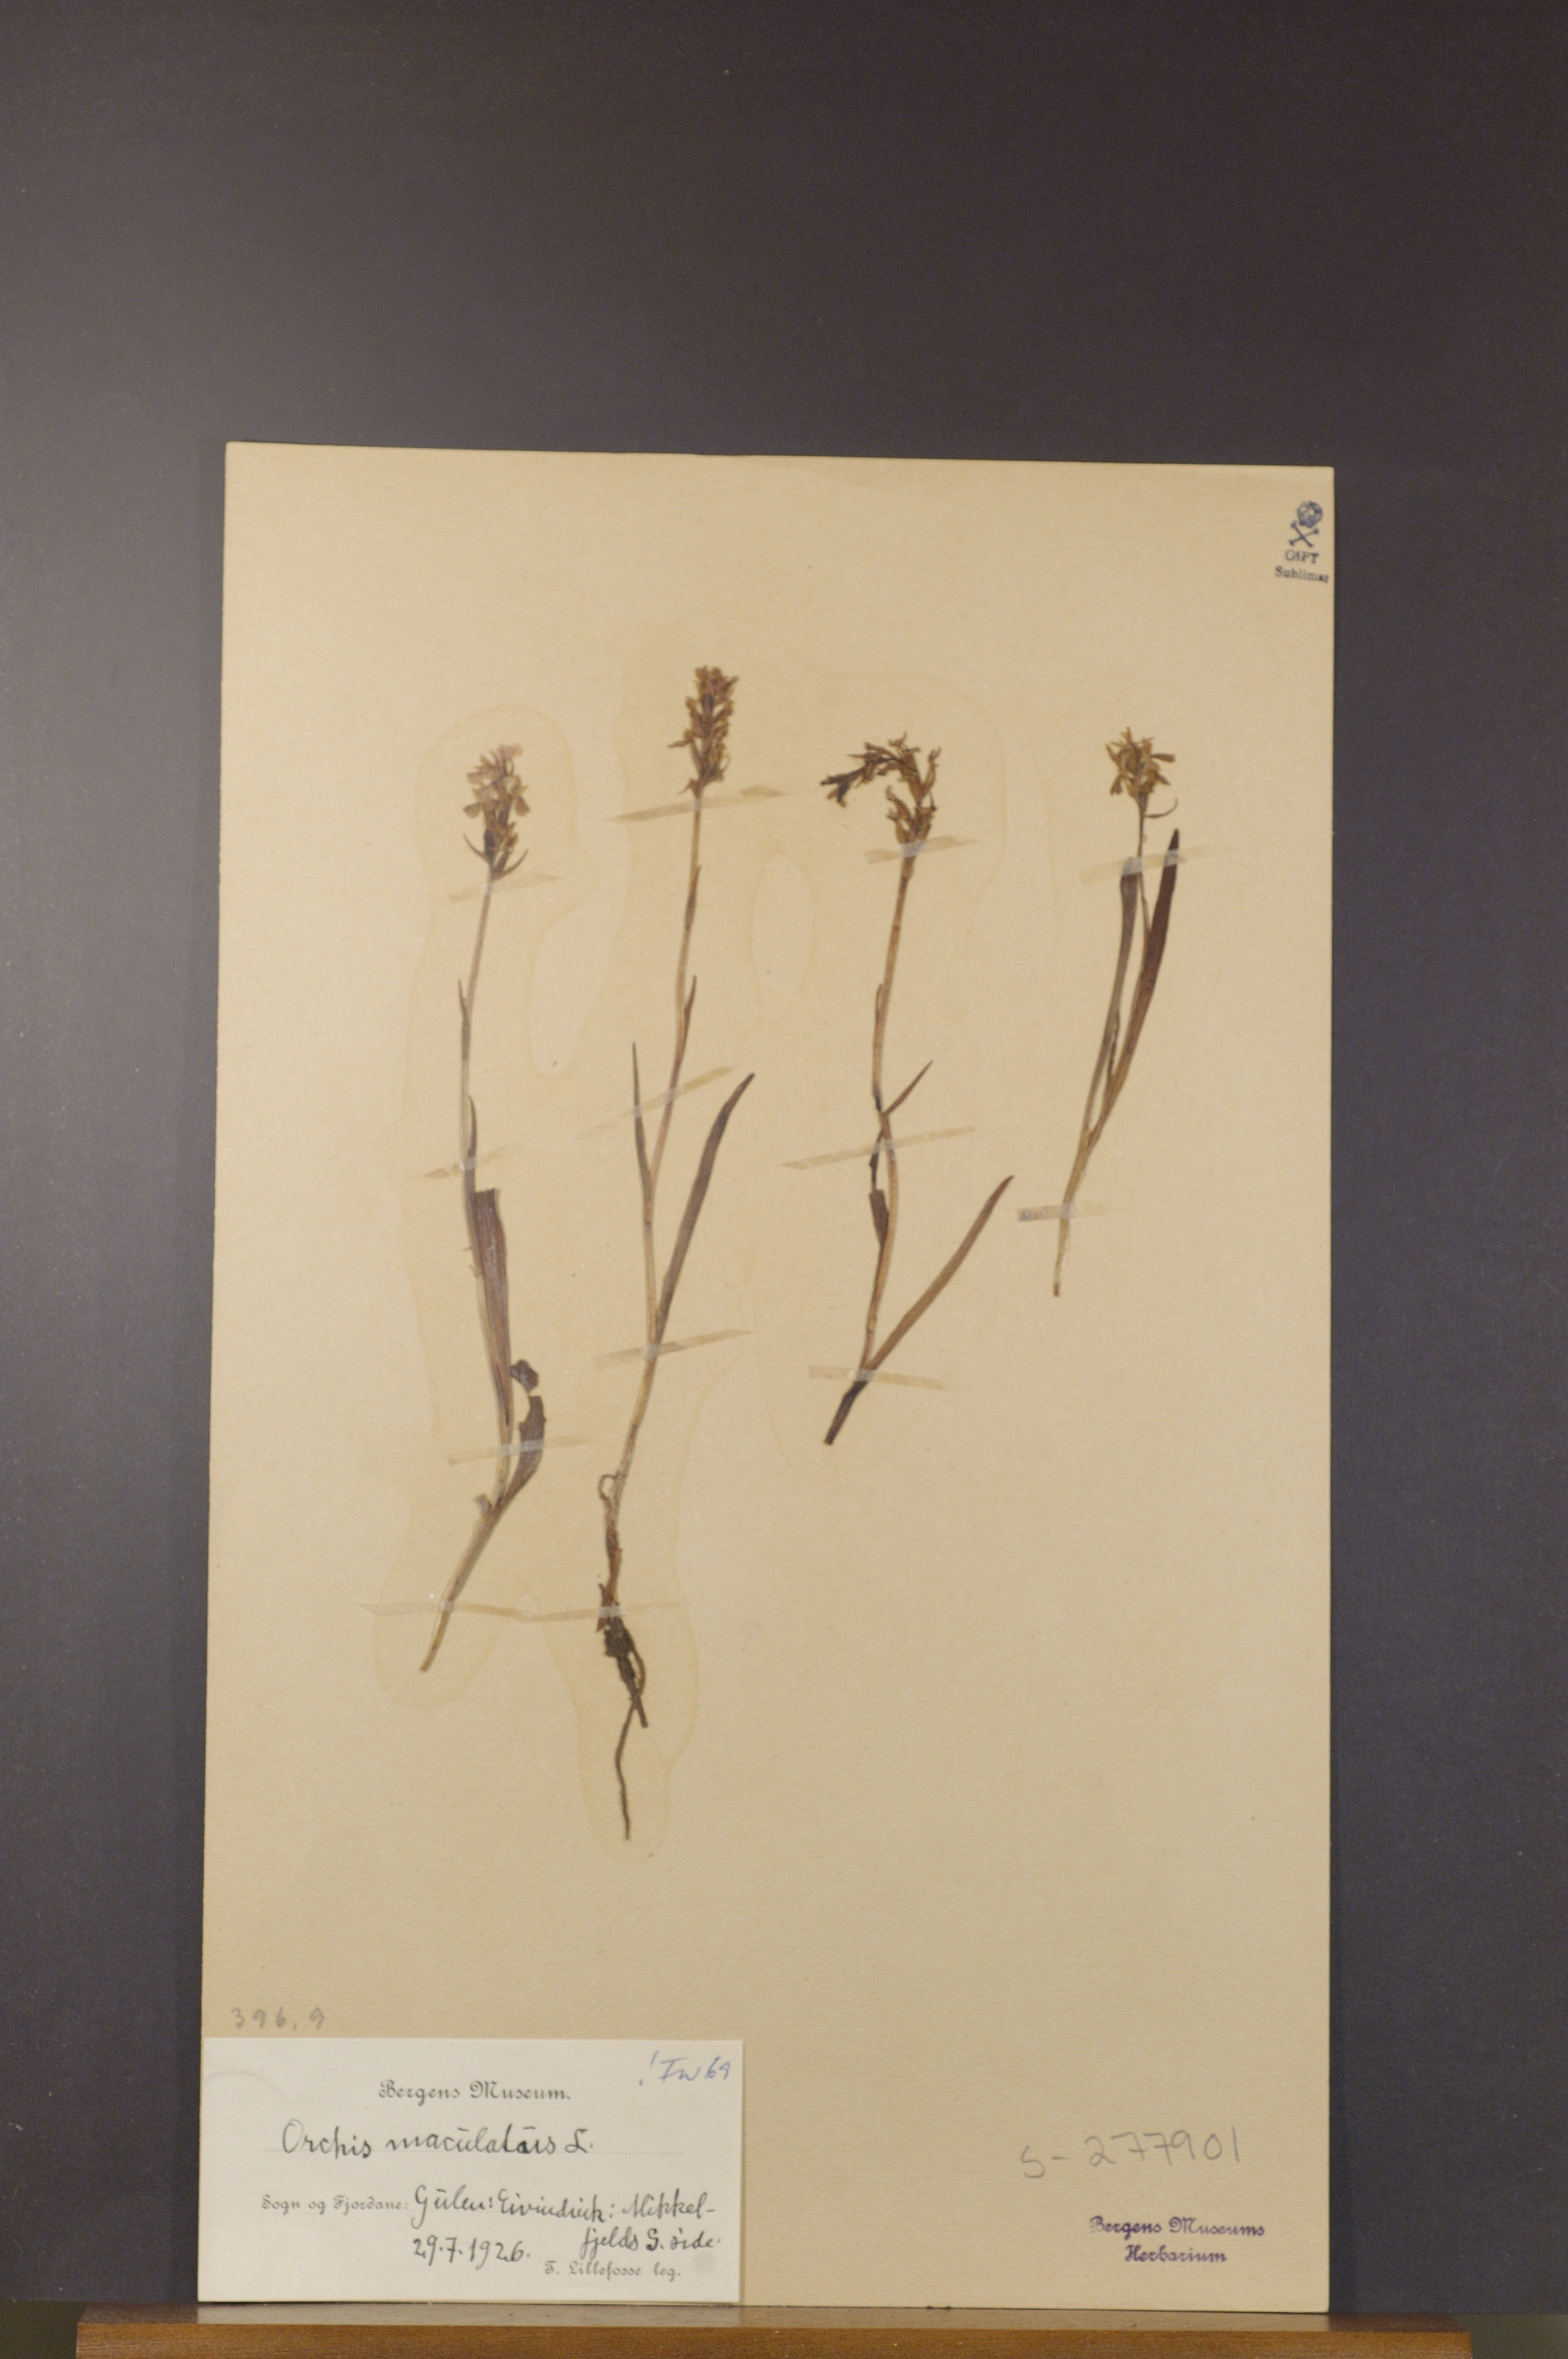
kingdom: Plantae
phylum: Tracheophyta
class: Liliopsida
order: Asparagales
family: Orchidaceae
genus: Dactylorhiza
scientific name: Dactylorhiza maculata
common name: Heath spotted-orchid
